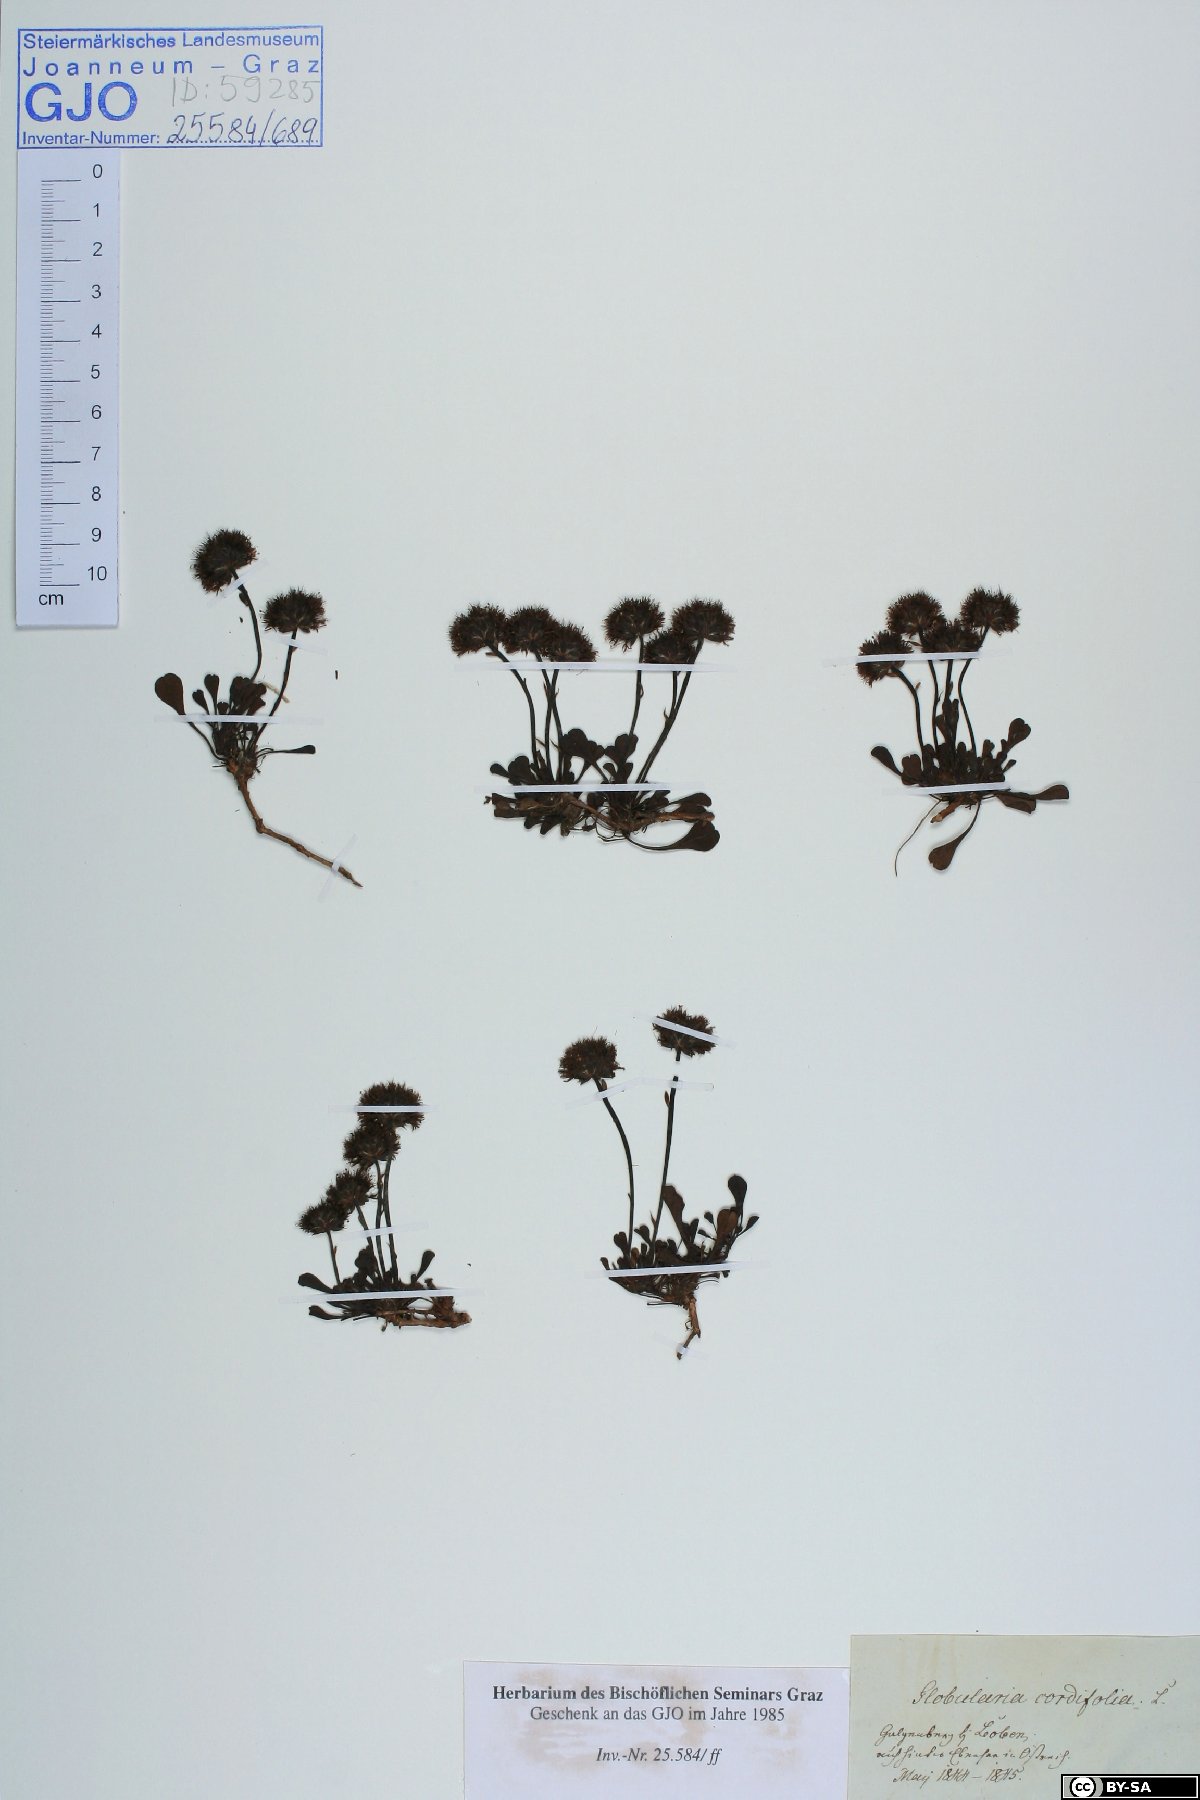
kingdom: Plantae
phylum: Tracheophyta
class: Magnoliopsida
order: Lamiales
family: Plantaginaceae
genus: Globularia
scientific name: Globularia cordifolia
